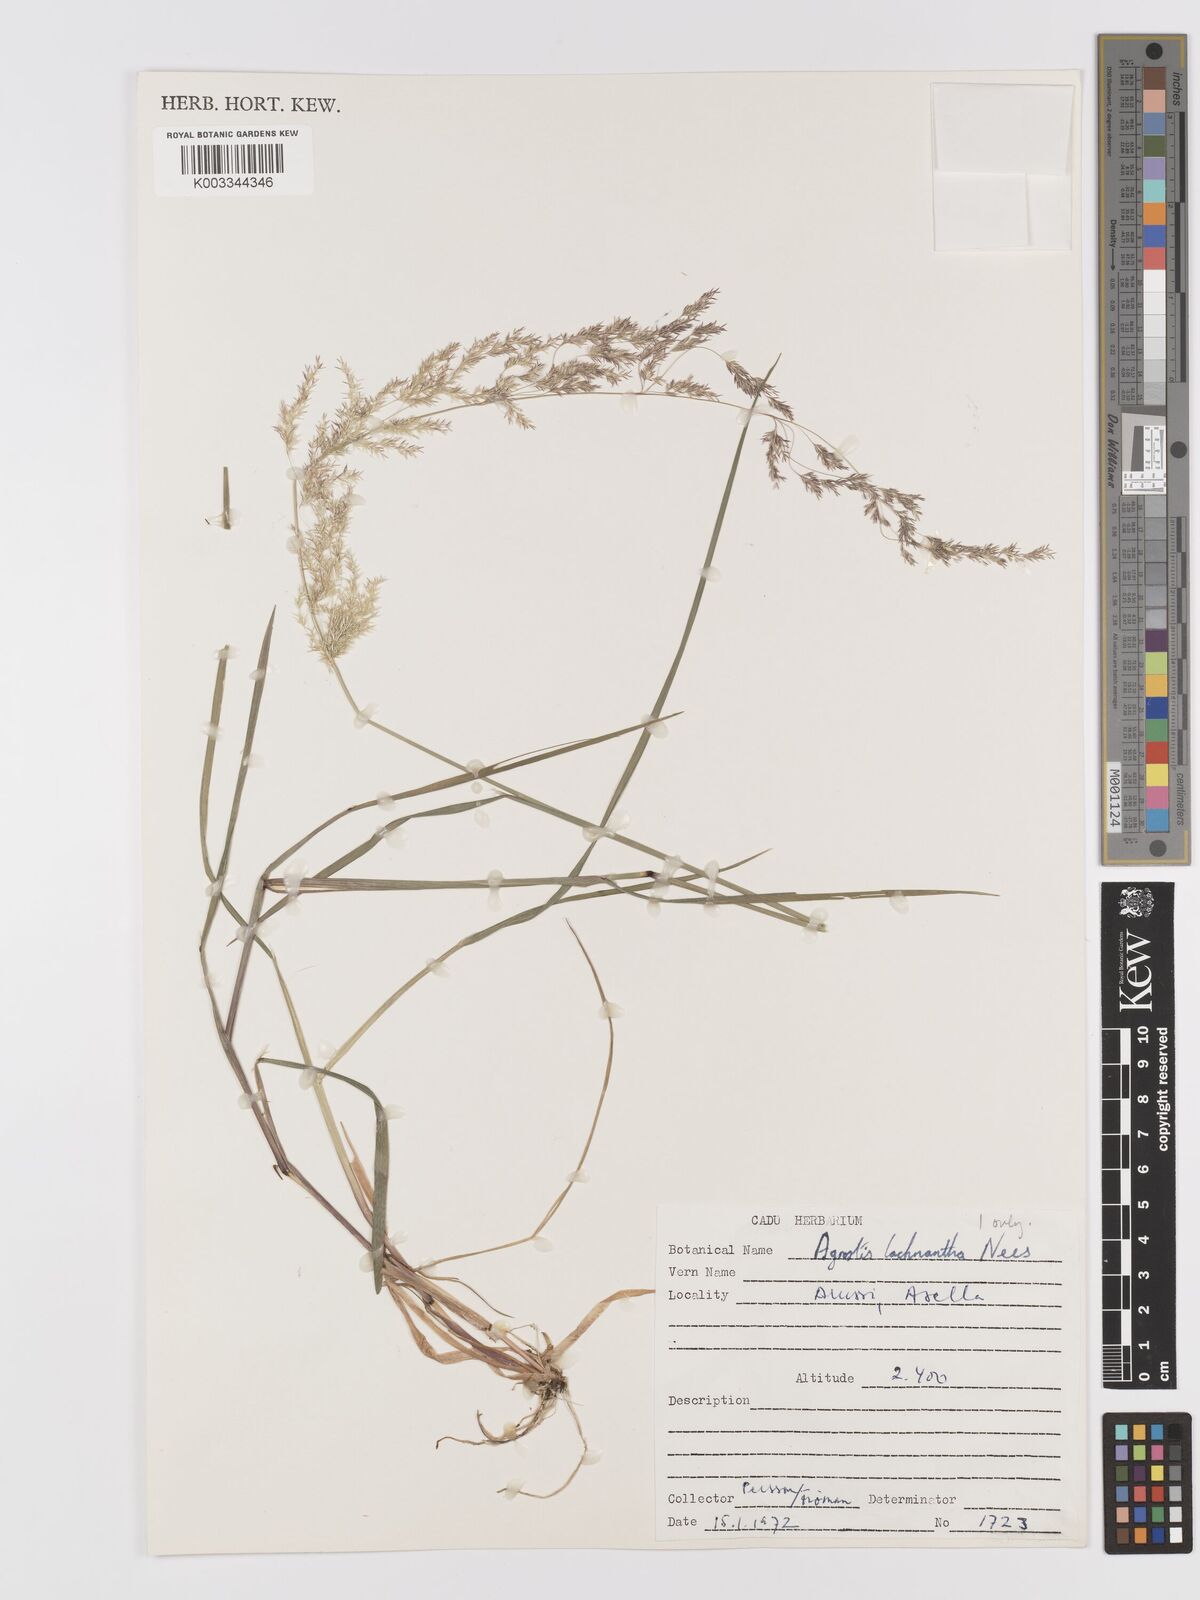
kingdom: Plantae
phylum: Tracheophyta
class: Liliopsida
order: Poales
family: Poaceae
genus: Lachnagrostis
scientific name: Lachnagrostis lachnantha
